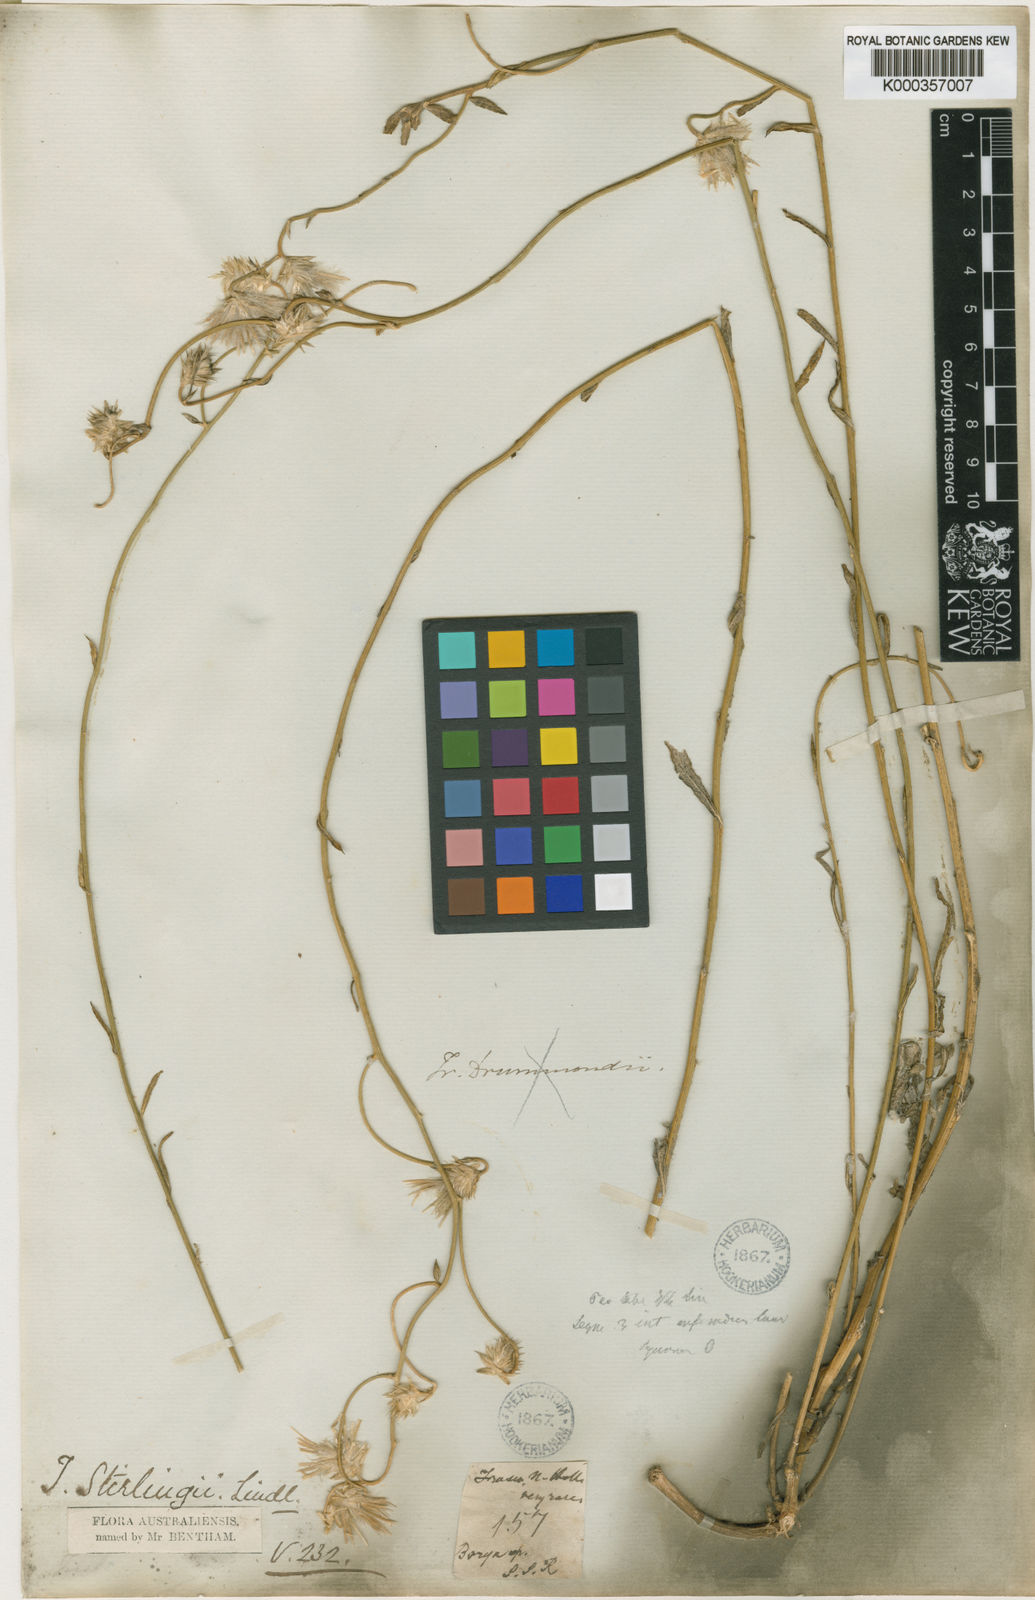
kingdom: Plantae
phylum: Tracheophyta
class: Magnoliopsida
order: Caryophyllales
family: Amaranthaceae
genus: Ptilotus
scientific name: Ptilotus stirlingii
